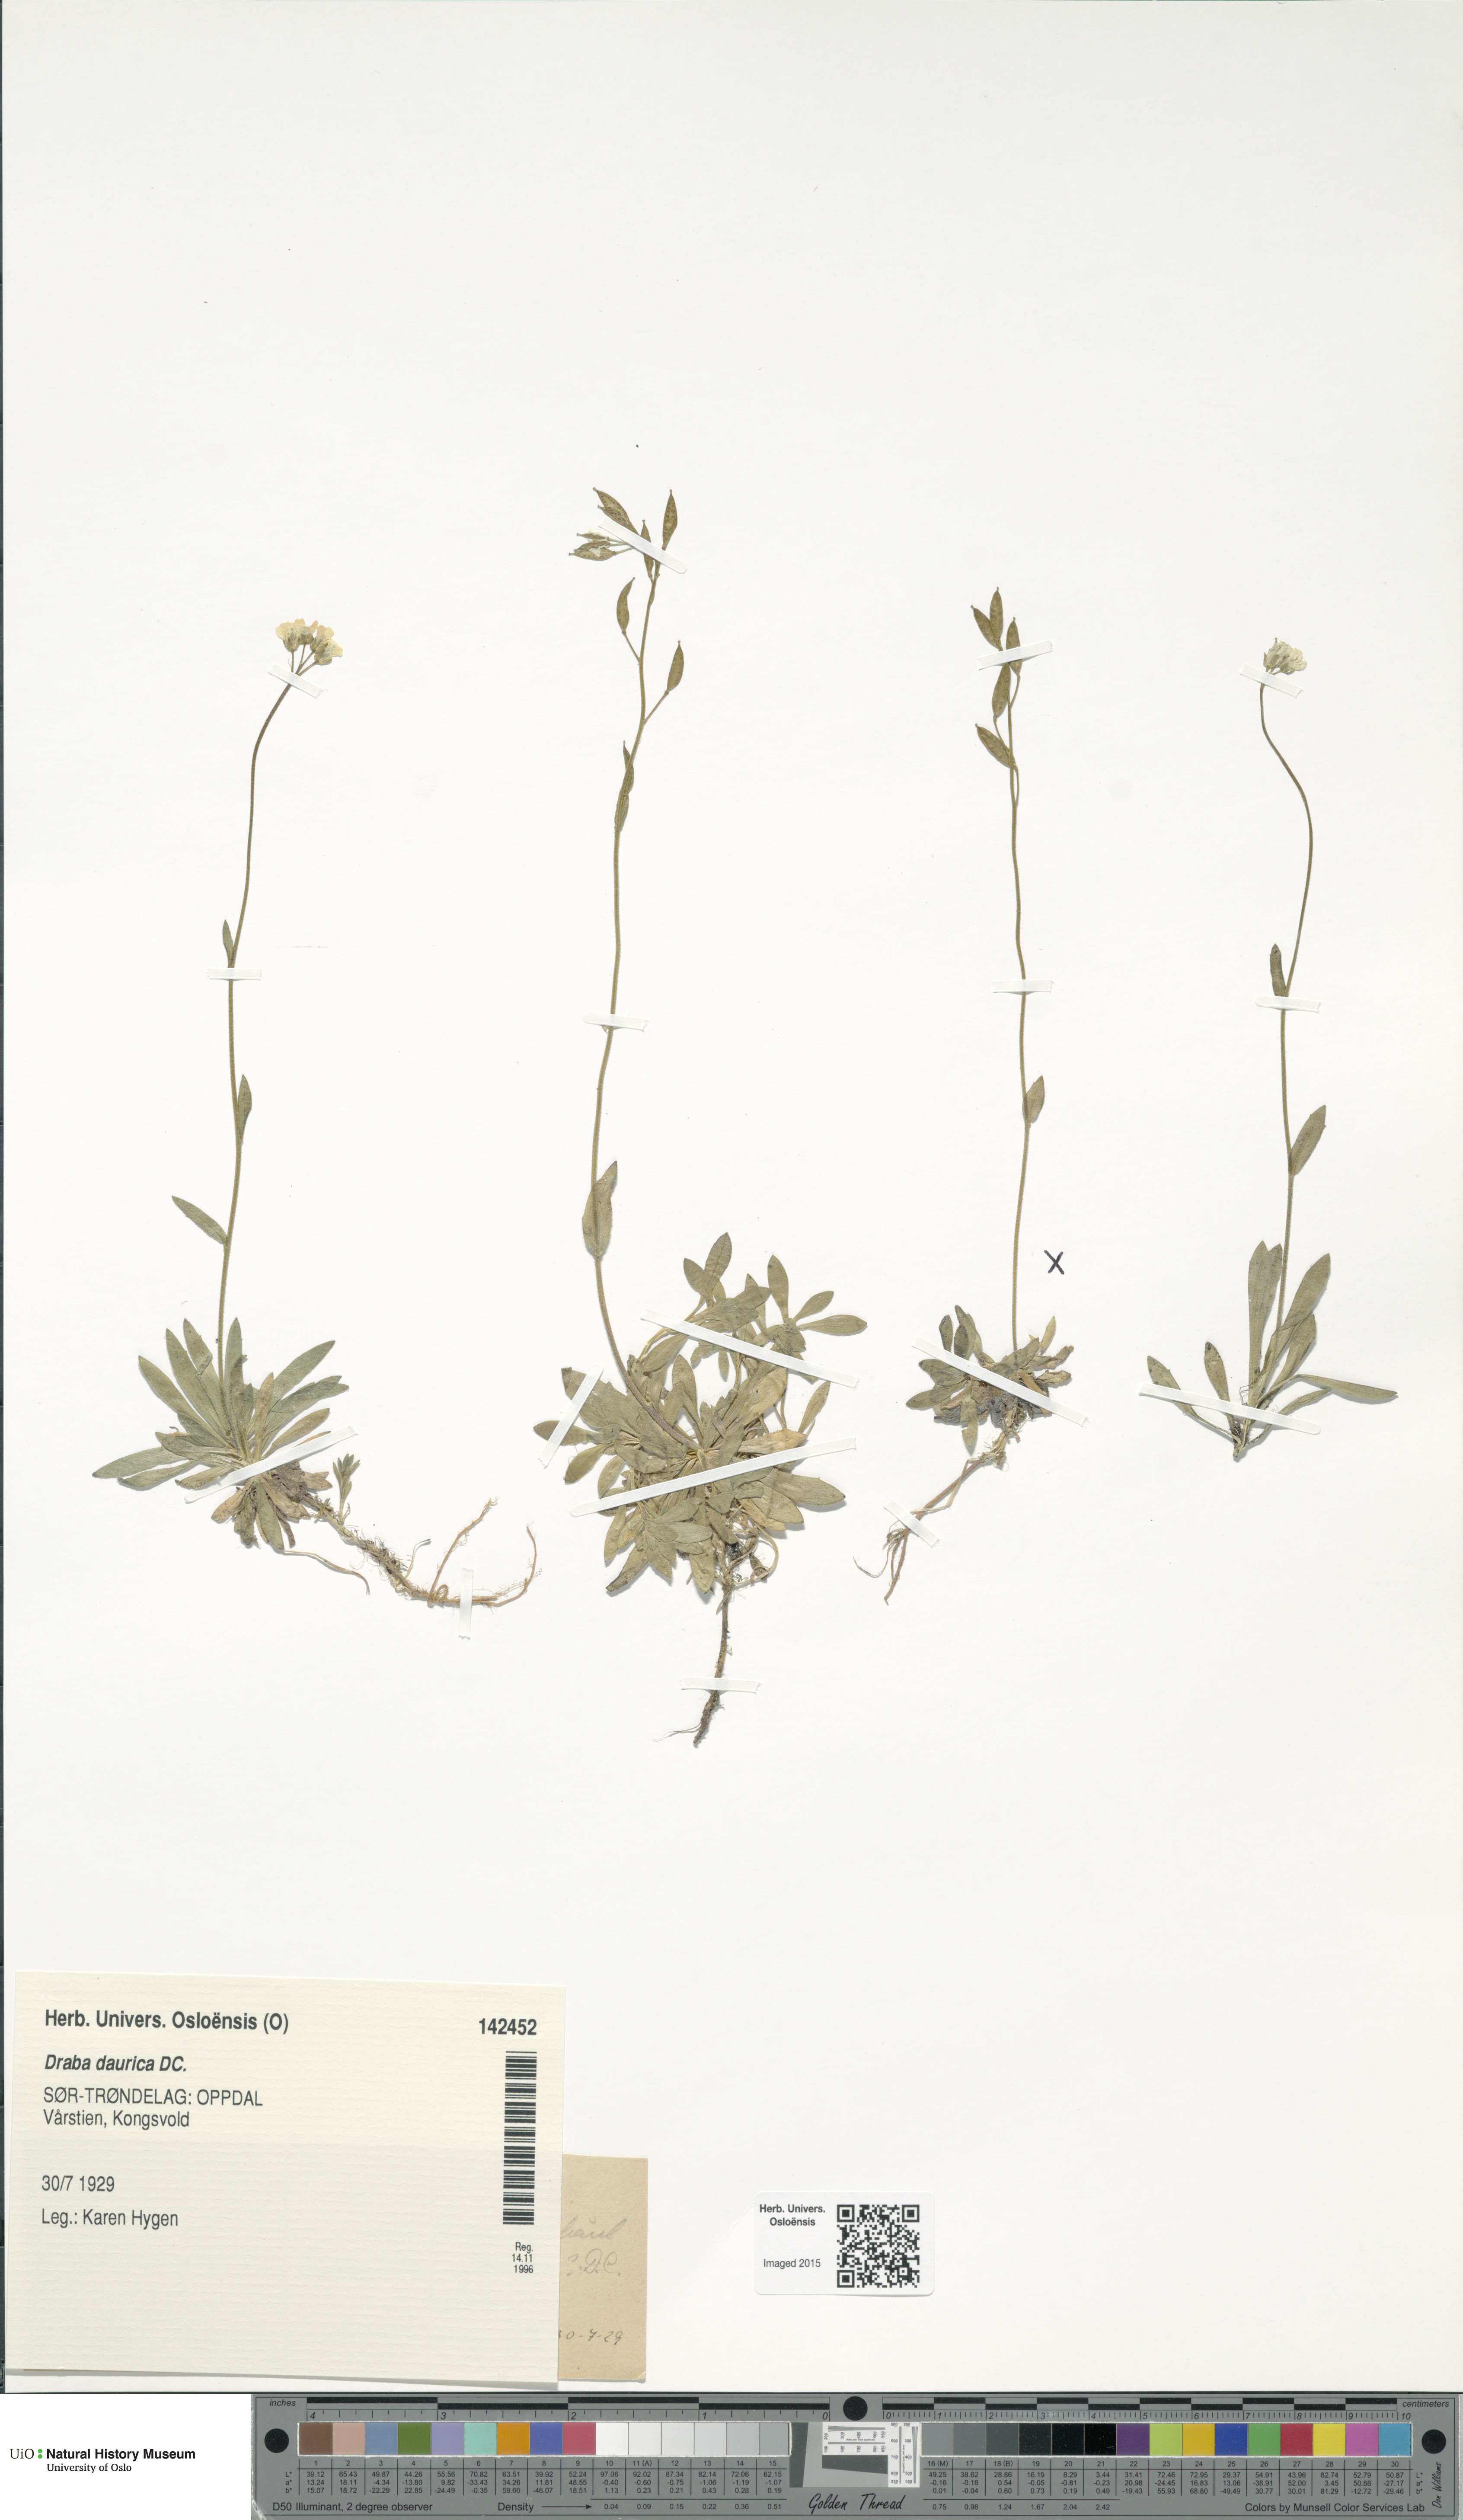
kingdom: Plantae
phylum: Tracheophyta
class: Magnoliopsida
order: Brassicales
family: Brassicaceae
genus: Draba
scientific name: Draba glabella
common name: Glaucous draba
